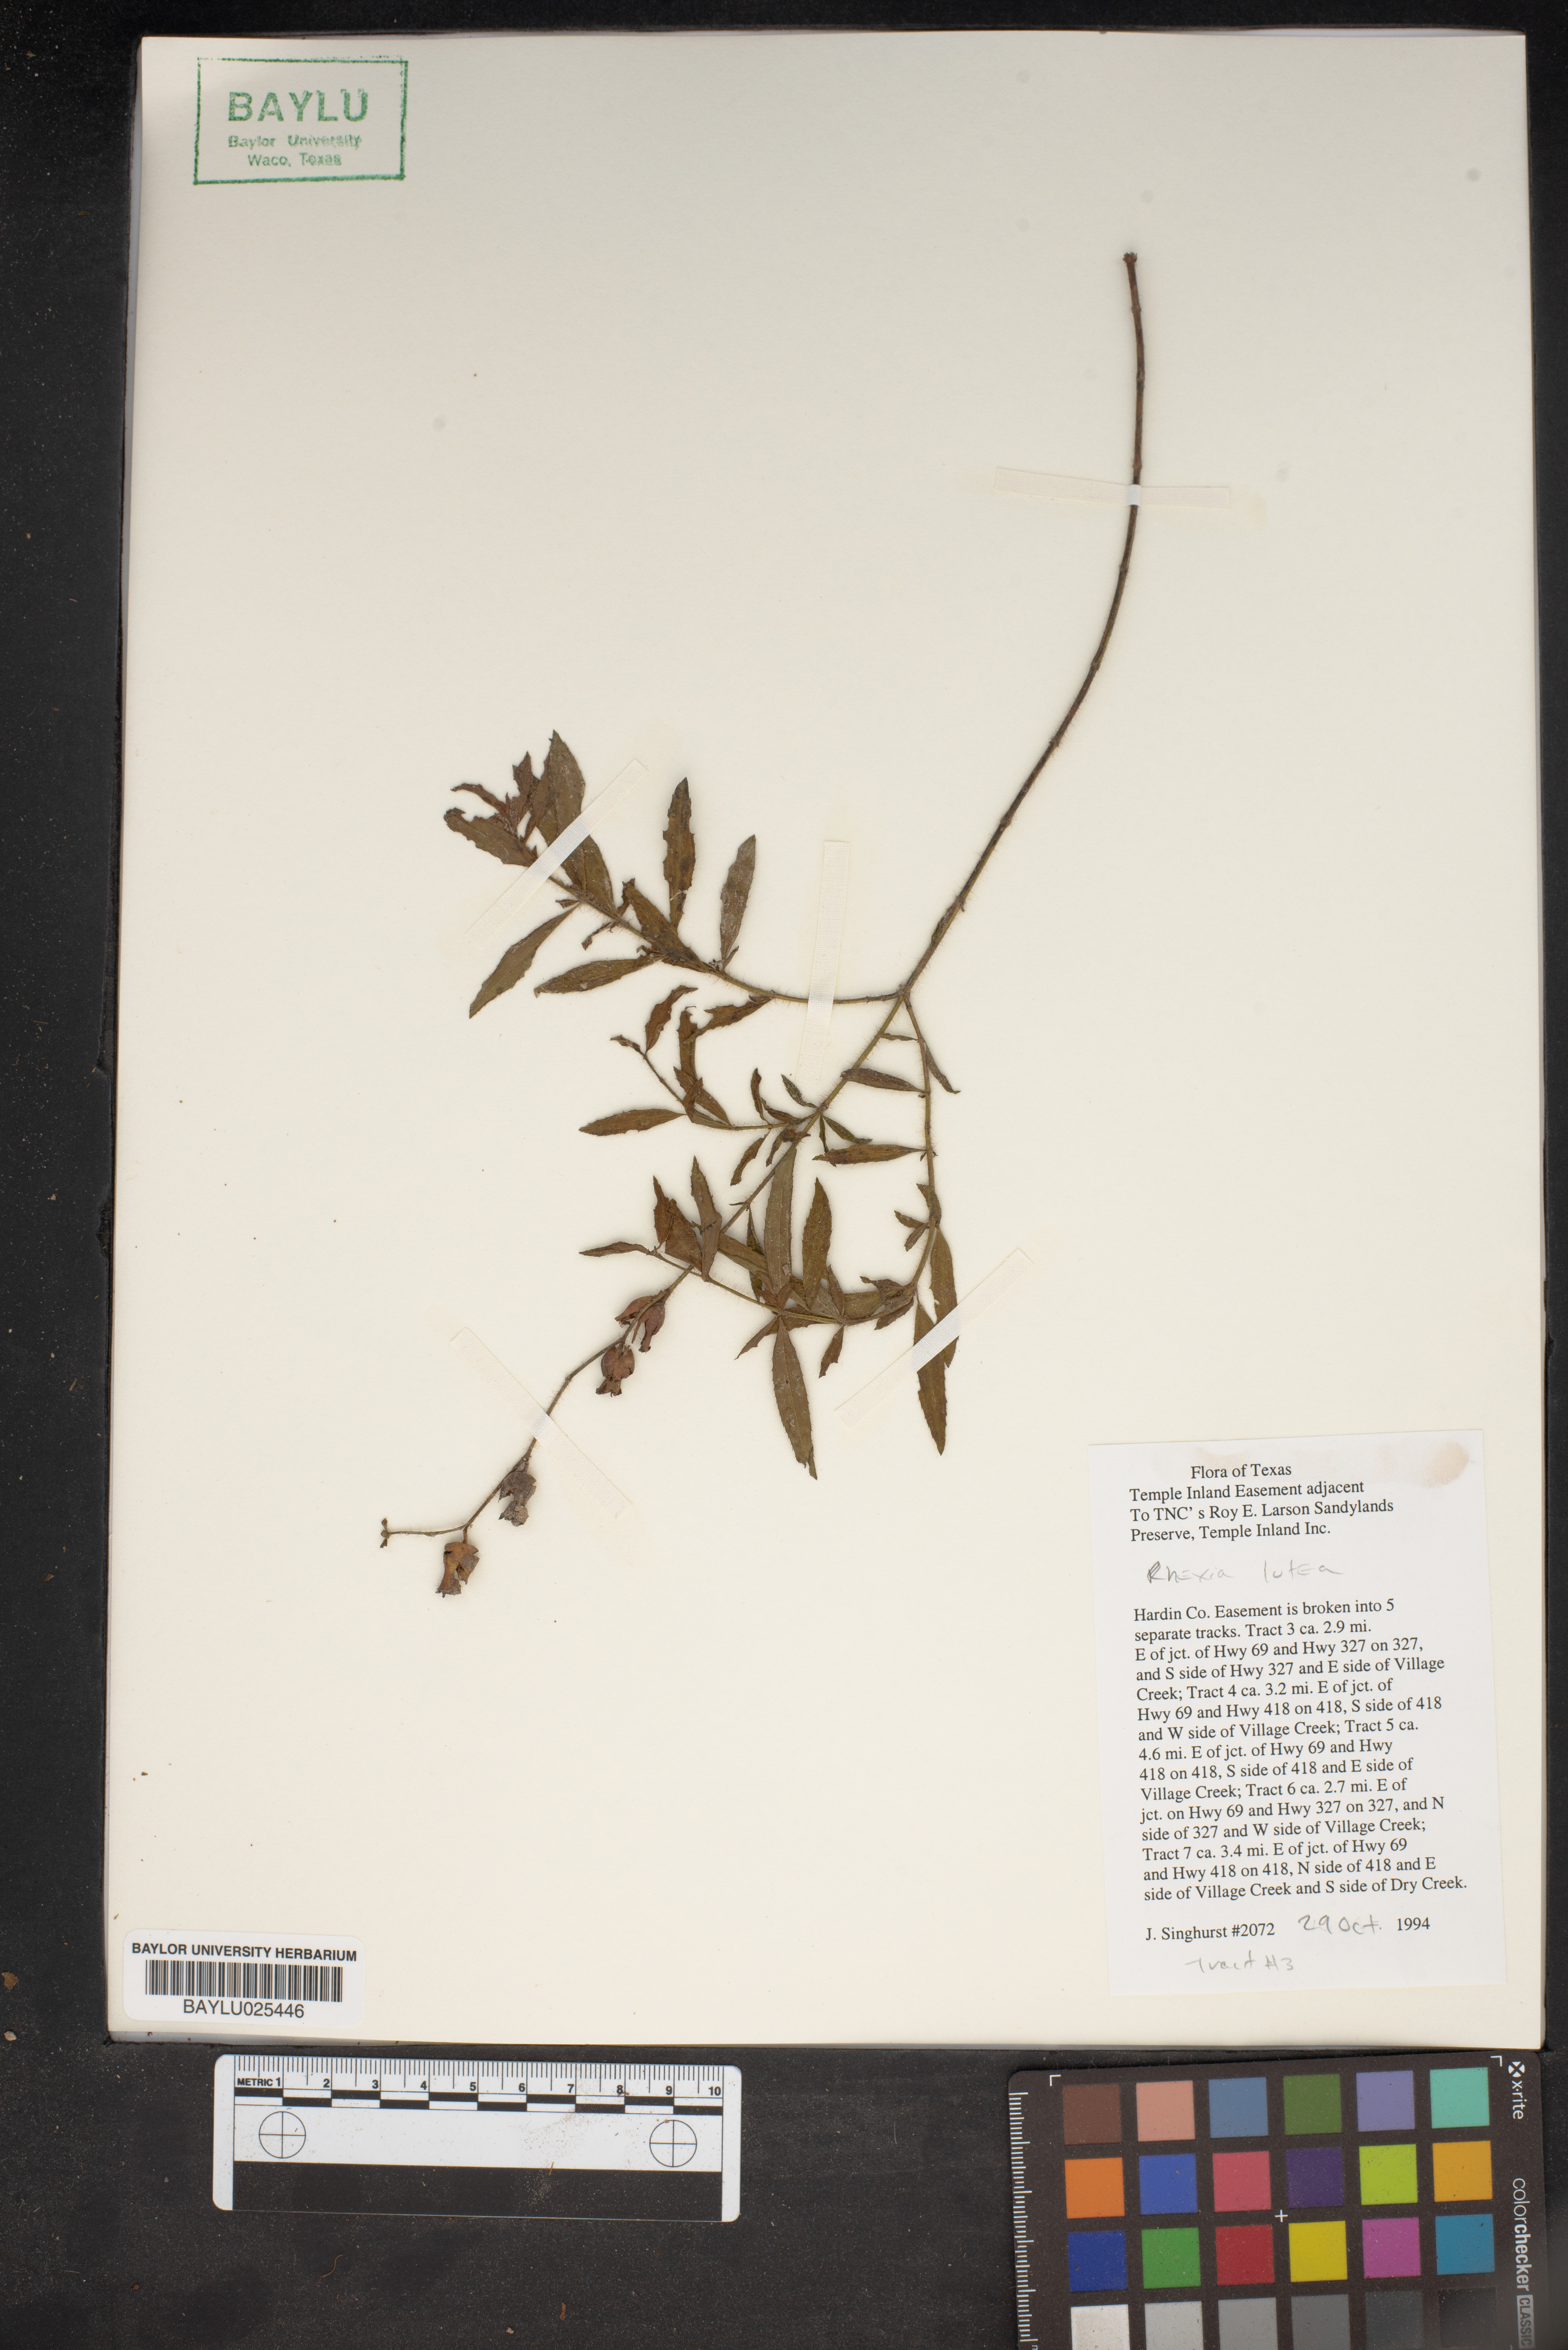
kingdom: Plantae
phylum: Tracheophyta
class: Magnoliopsida
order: Myrtales
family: Melastomataceae
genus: Rhexia
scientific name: Rhexia lutea
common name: Golden meadow-beauty
